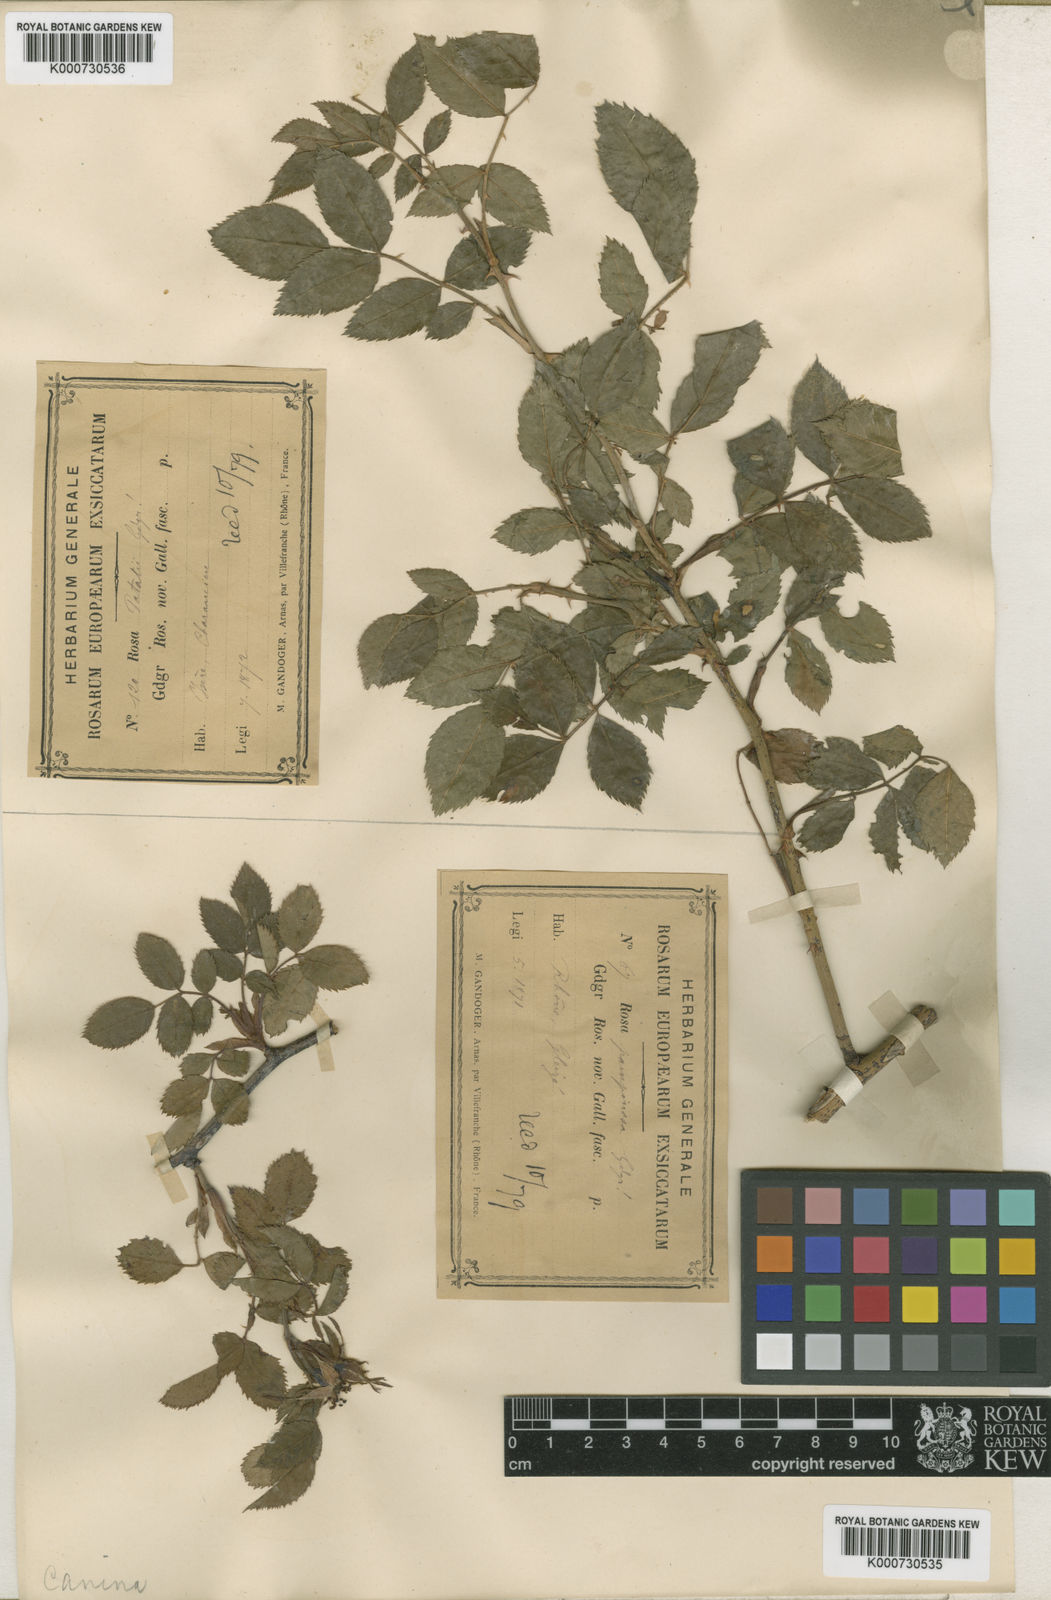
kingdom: Plantae
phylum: Tracheophyta
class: Magnoliopsida
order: Rosales
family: Rosaceae
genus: Rosa
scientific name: Rosa canina
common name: Dog rose
